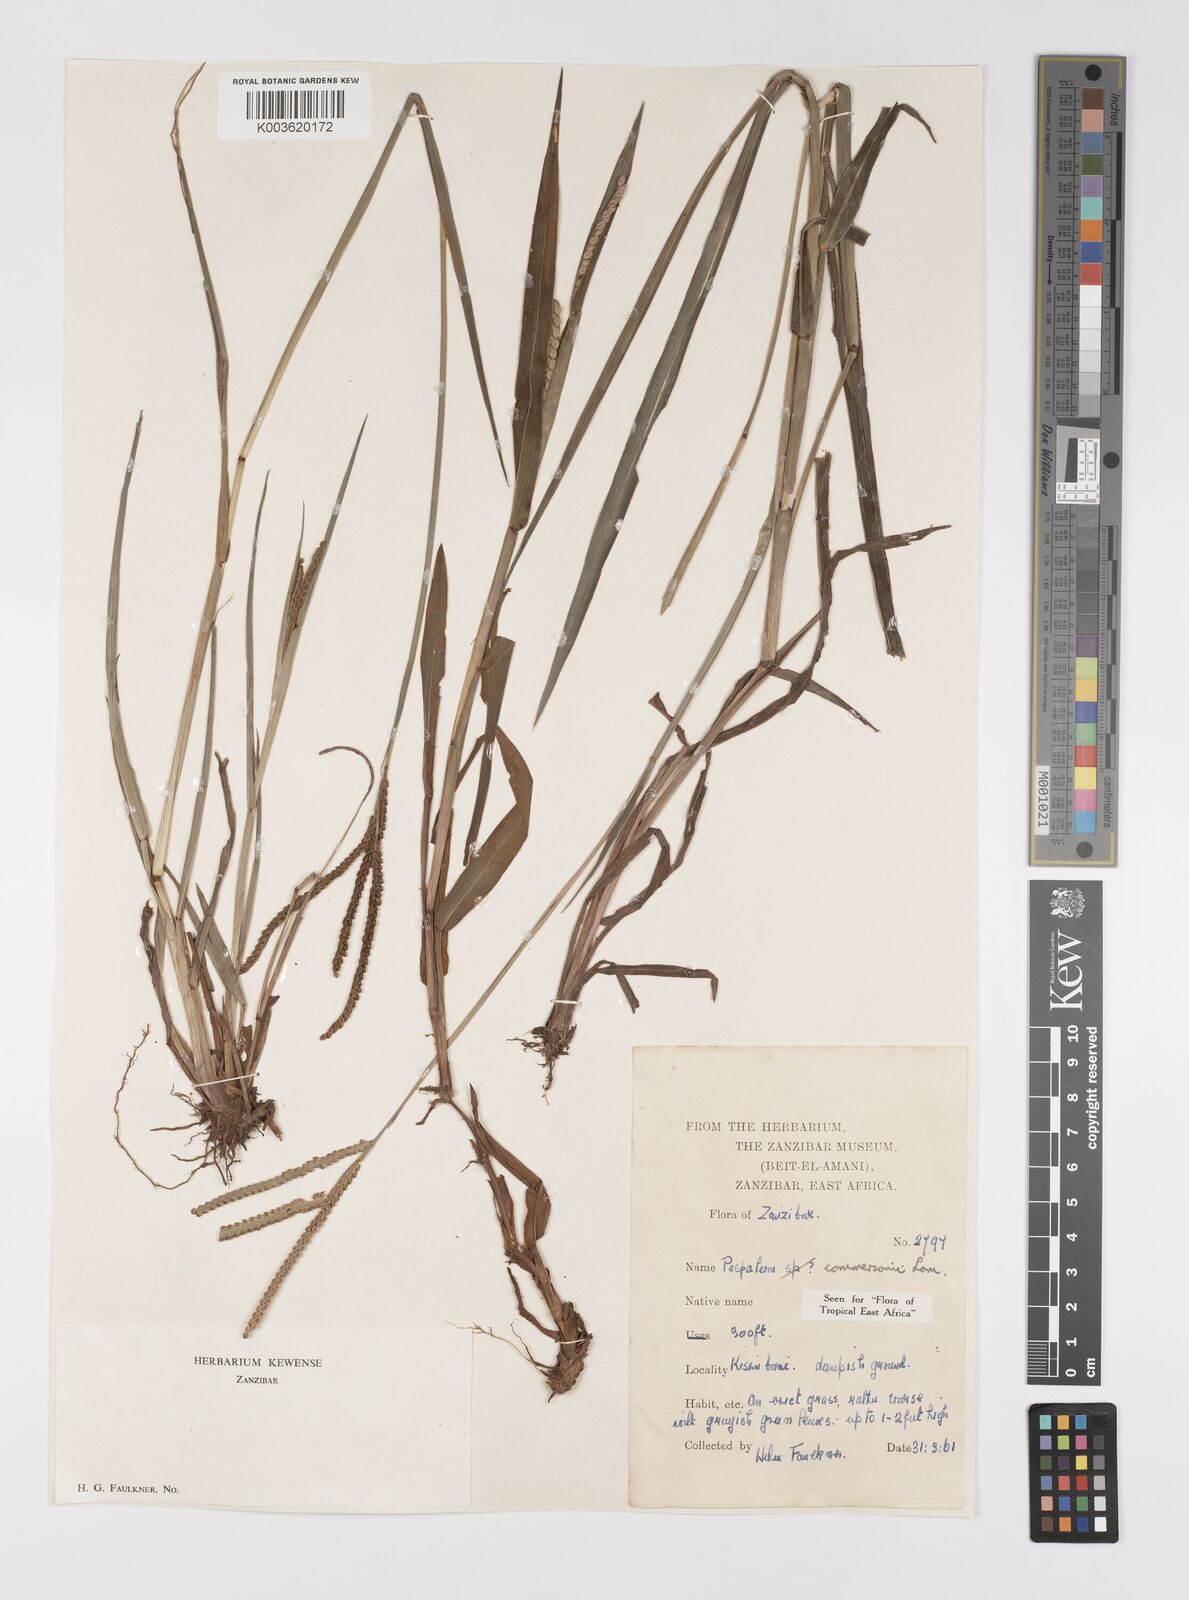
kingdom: Plantae
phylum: Tracheophyta
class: Liliopsida
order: Poales
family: Poaceae
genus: Paspalum
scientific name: Paspalum scrobiculatum
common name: Kodo millet
